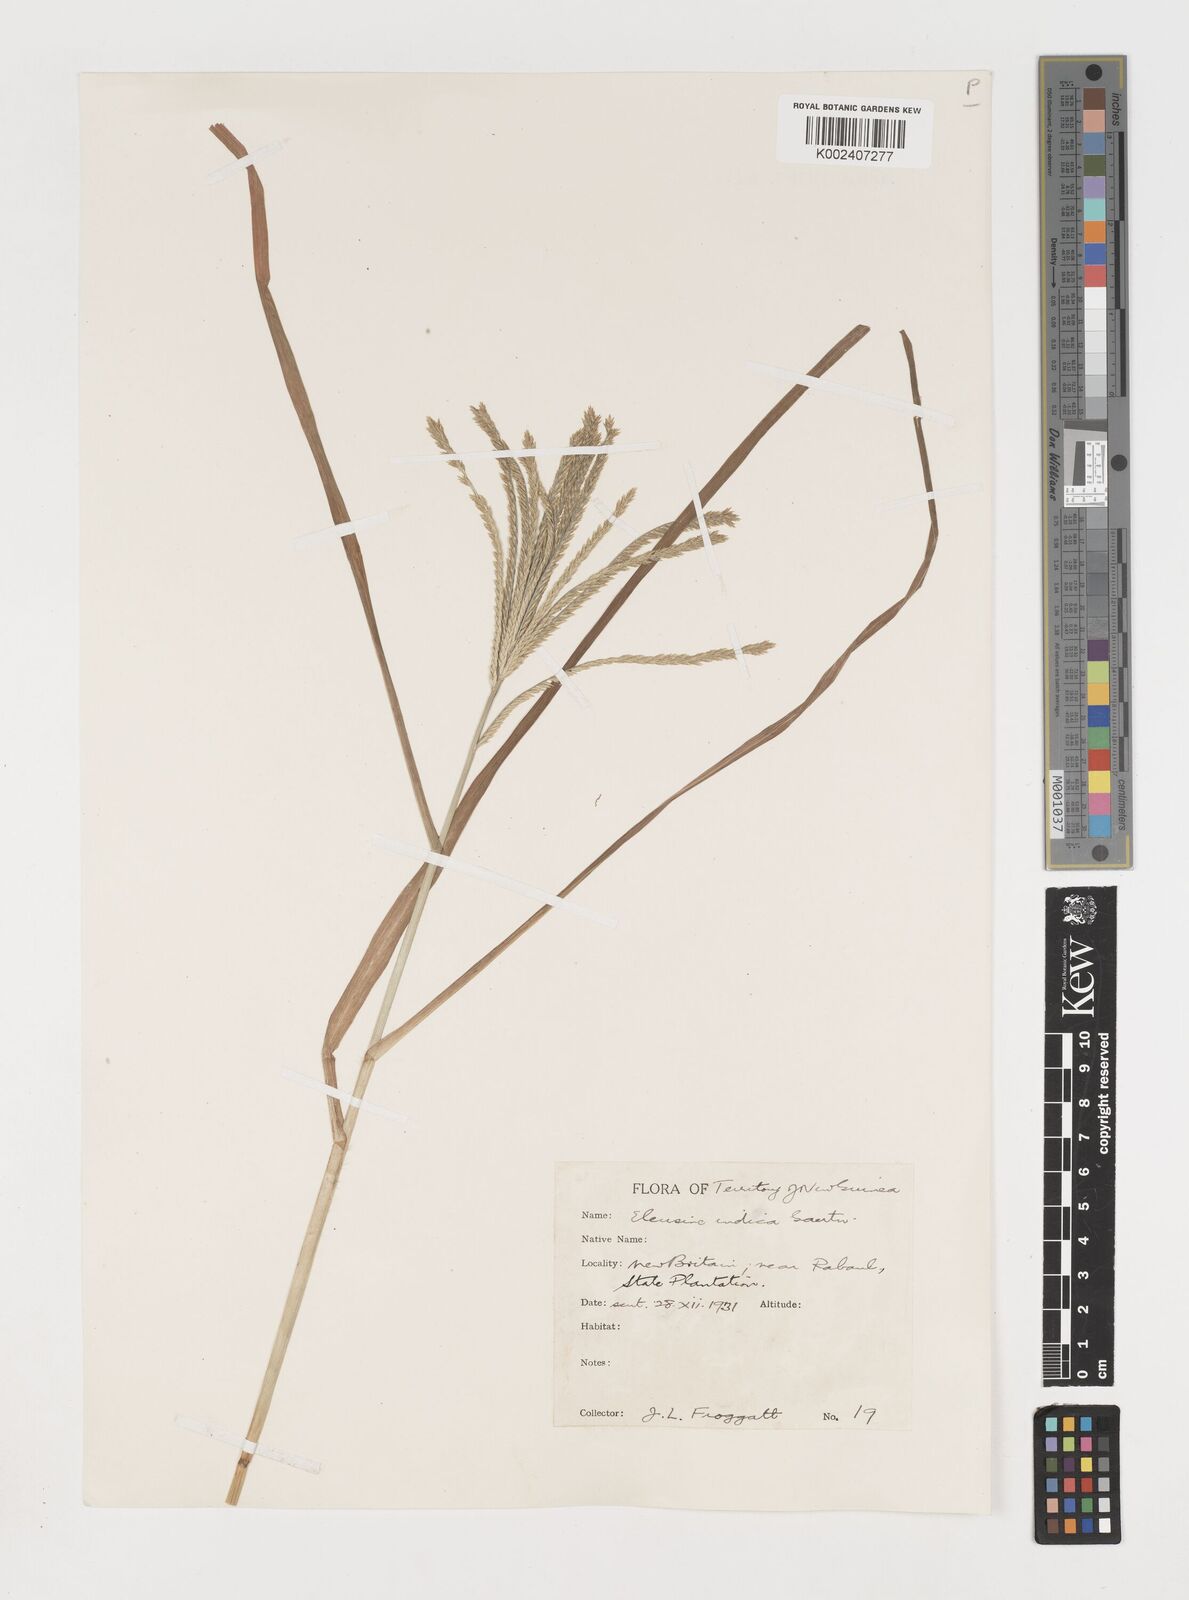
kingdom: Plantae
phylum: Tracheophyta
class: Liliopsida
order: Poales
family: Poaceae
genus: Eleusine
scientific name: Eleusine indica
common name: Yard-grass
